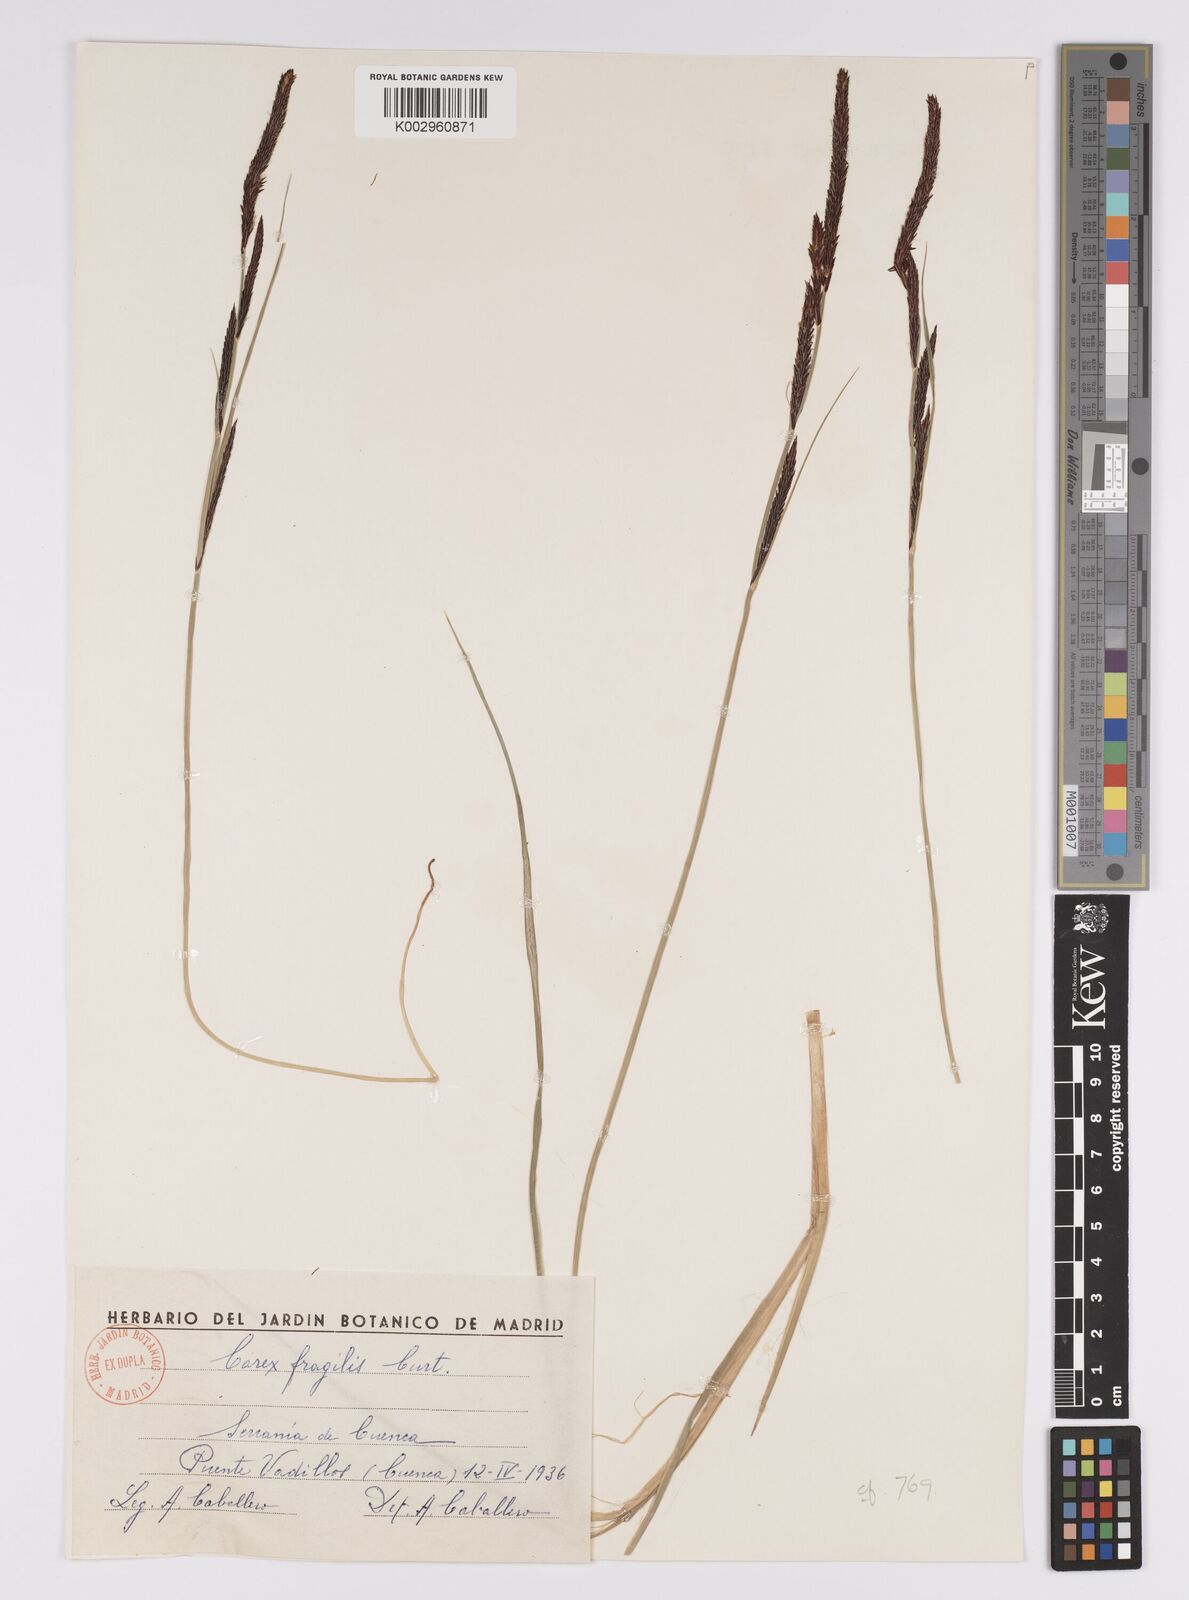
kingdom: Plantae
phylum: Tracheophyta
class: Liliopsida
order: Poales
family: Cyperaceae
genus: Carex
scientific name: Carex acutiformis
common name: Lesser pond-sedge
